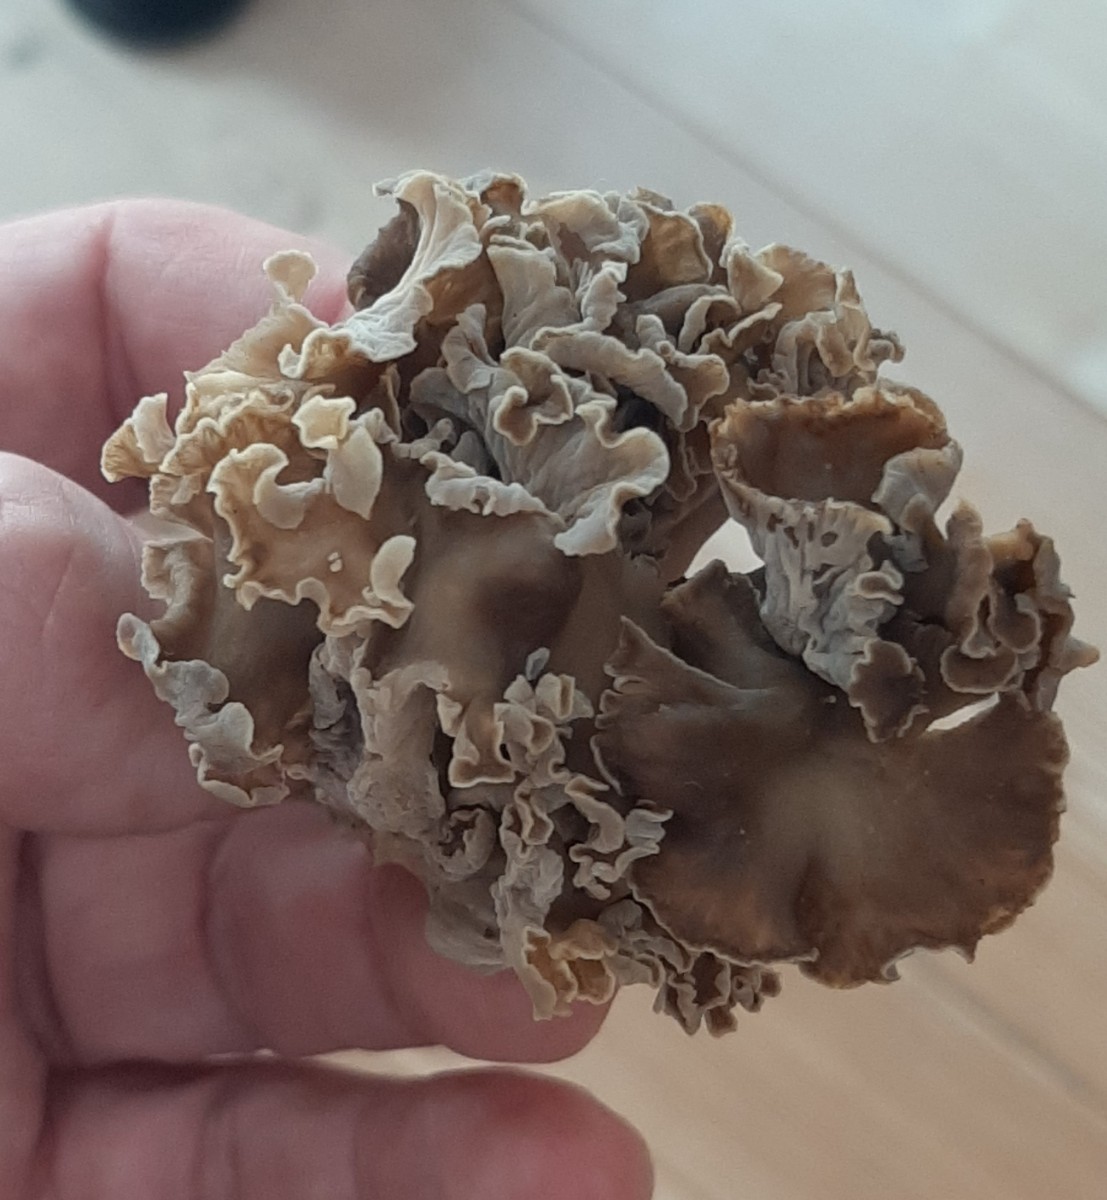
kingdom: Fungi
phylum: Basidiomycota
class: Agaricomycetes
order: Cantharellales
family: Hydnaceae
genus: Craterellus
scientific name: Craterellus undulatus
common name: liden kantarel
